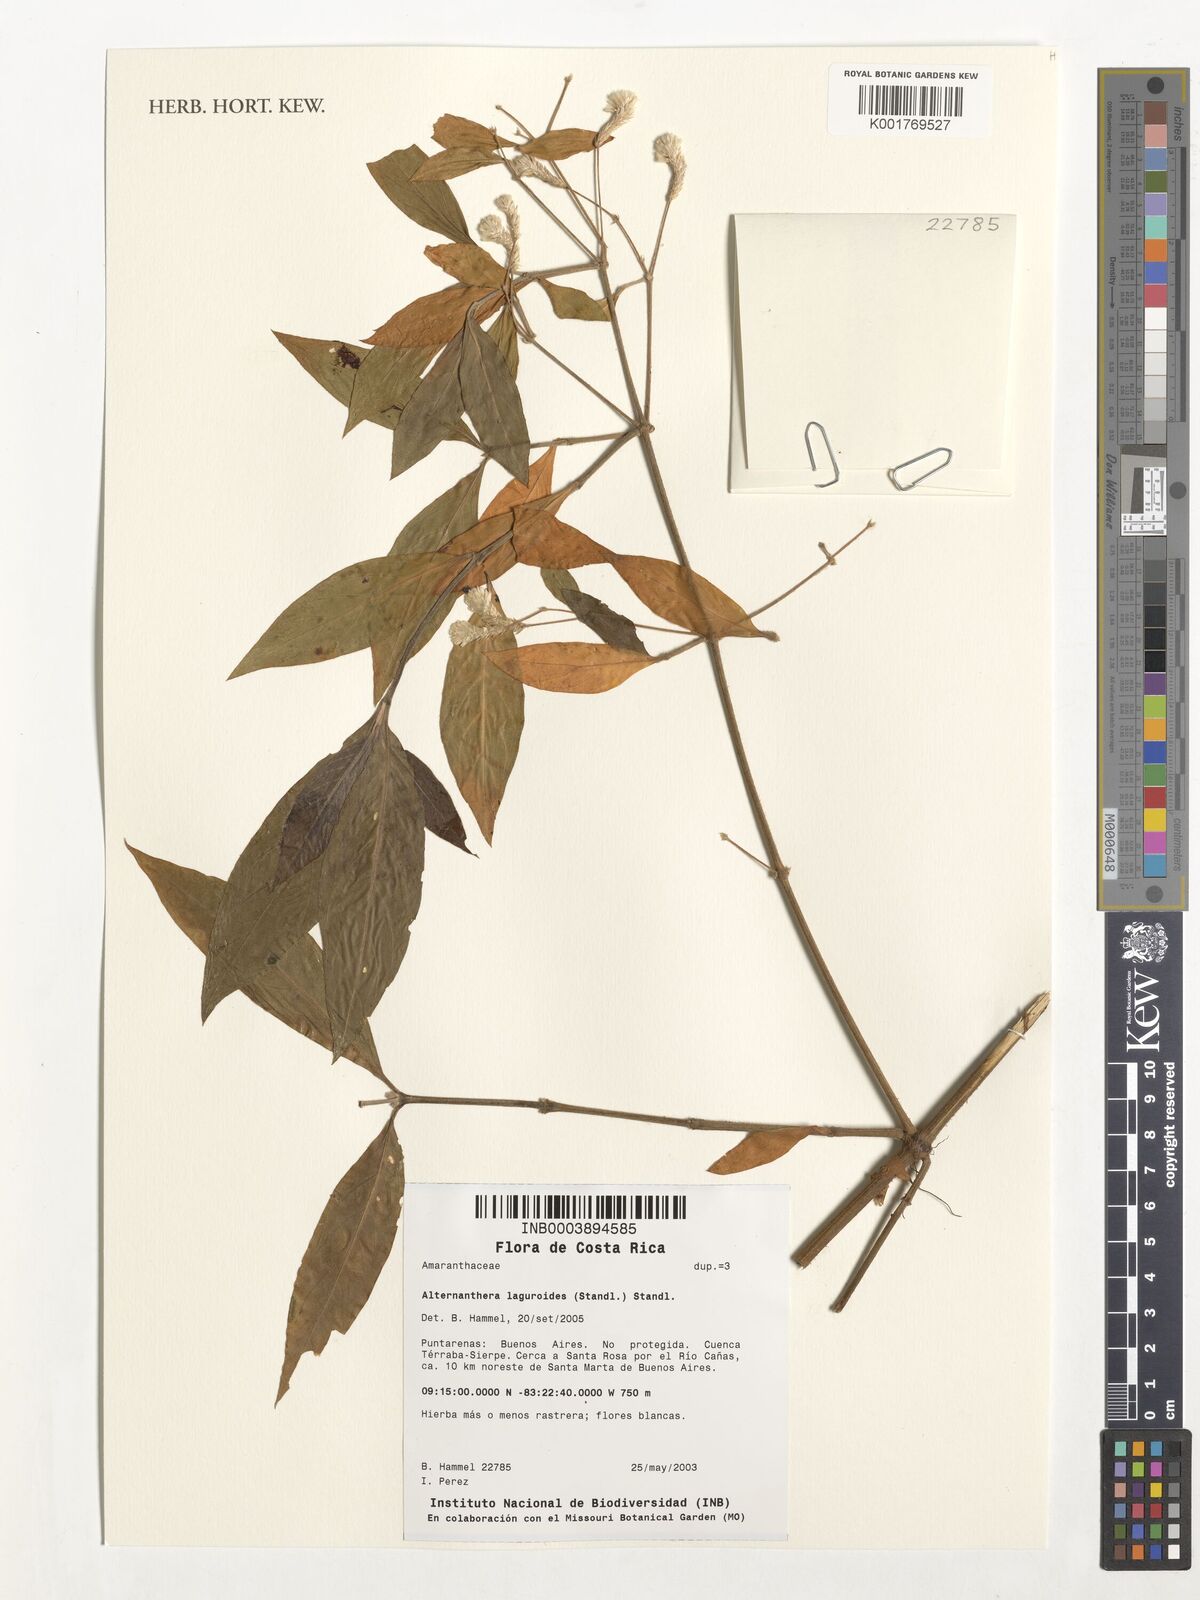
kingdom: Plantae
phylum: Tracheophyta
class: Magnoliopsida
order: Caryophyllales
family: Amaranthaceae
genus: Alternanthera
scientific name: Alternanthera laguroides
